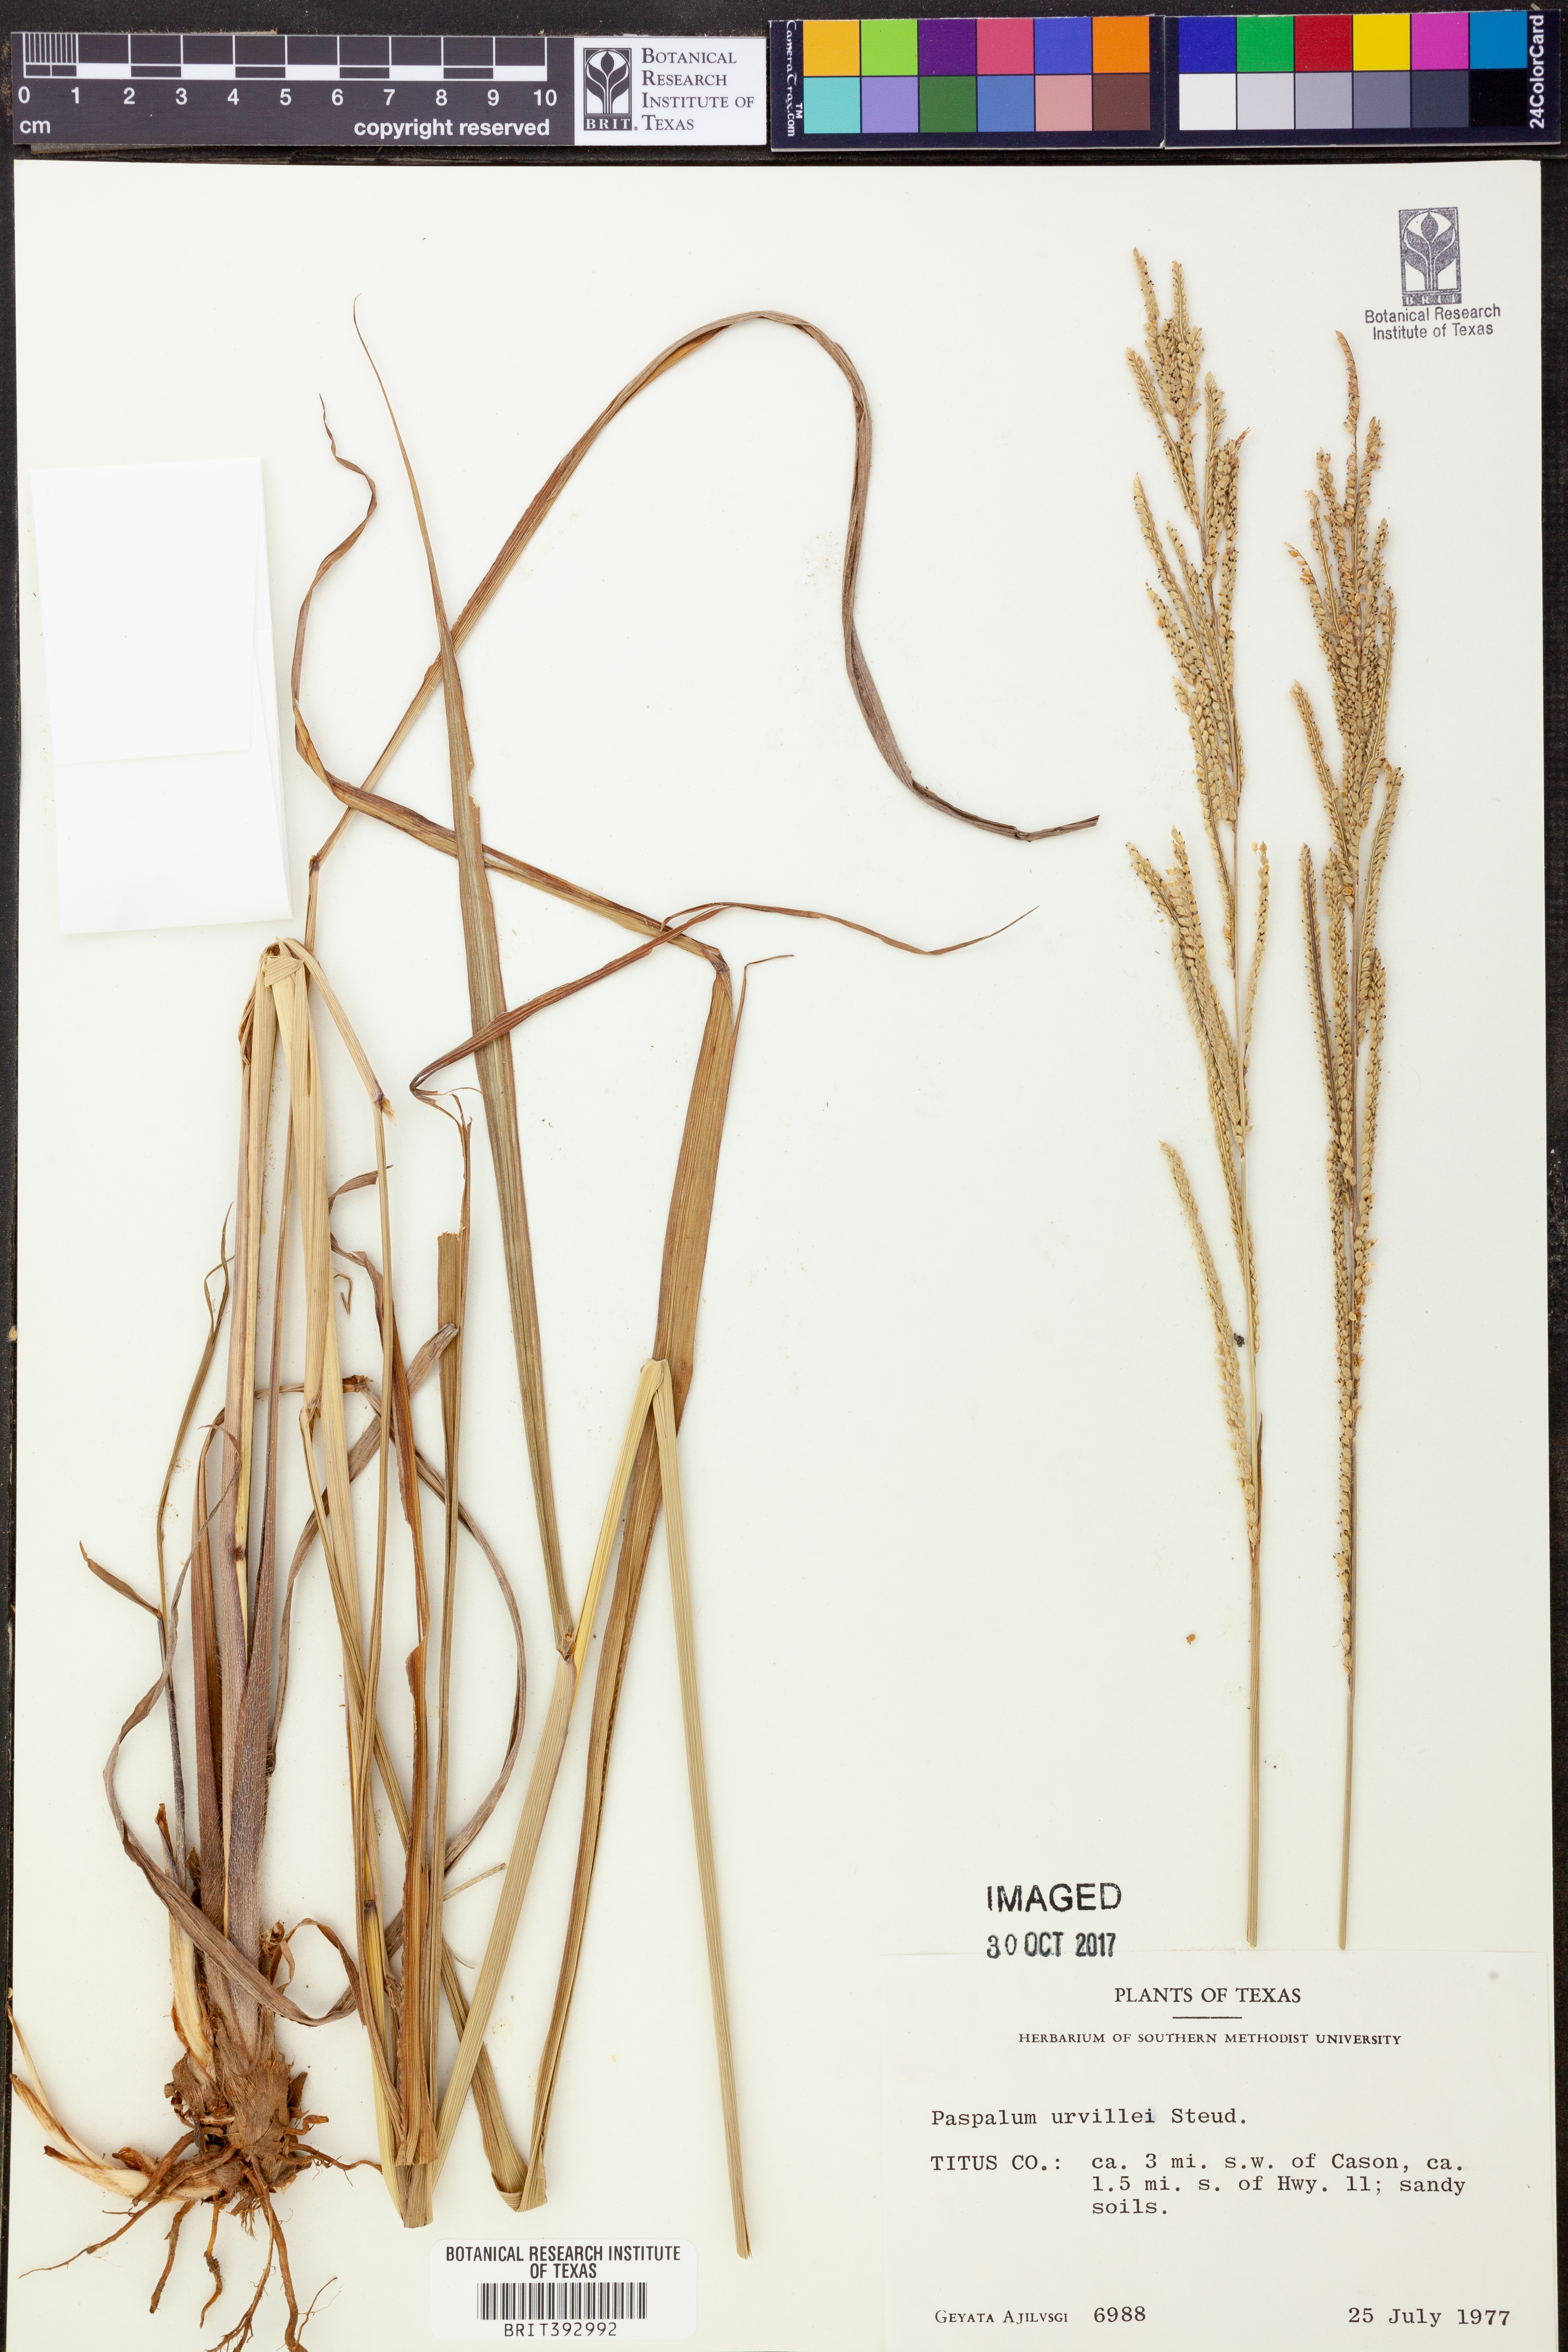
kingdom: Plantae
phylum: Tracheophyta
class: Liliopsida
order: Poales
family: Poaceae
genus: Paspalum
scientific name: Paspalum urvillei
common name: Vasey's grass
